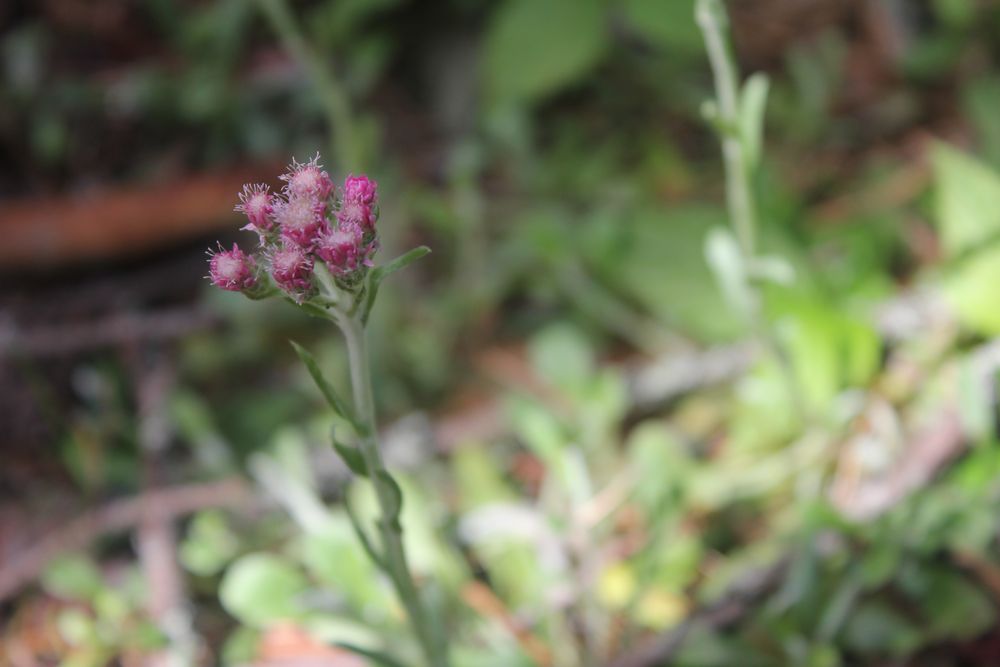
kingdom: Plantae
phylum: Tracheophyta
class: Magnoliopsida
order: Asterales
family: Asteraceae
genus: Antennaria
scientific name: Antennaria dioica
